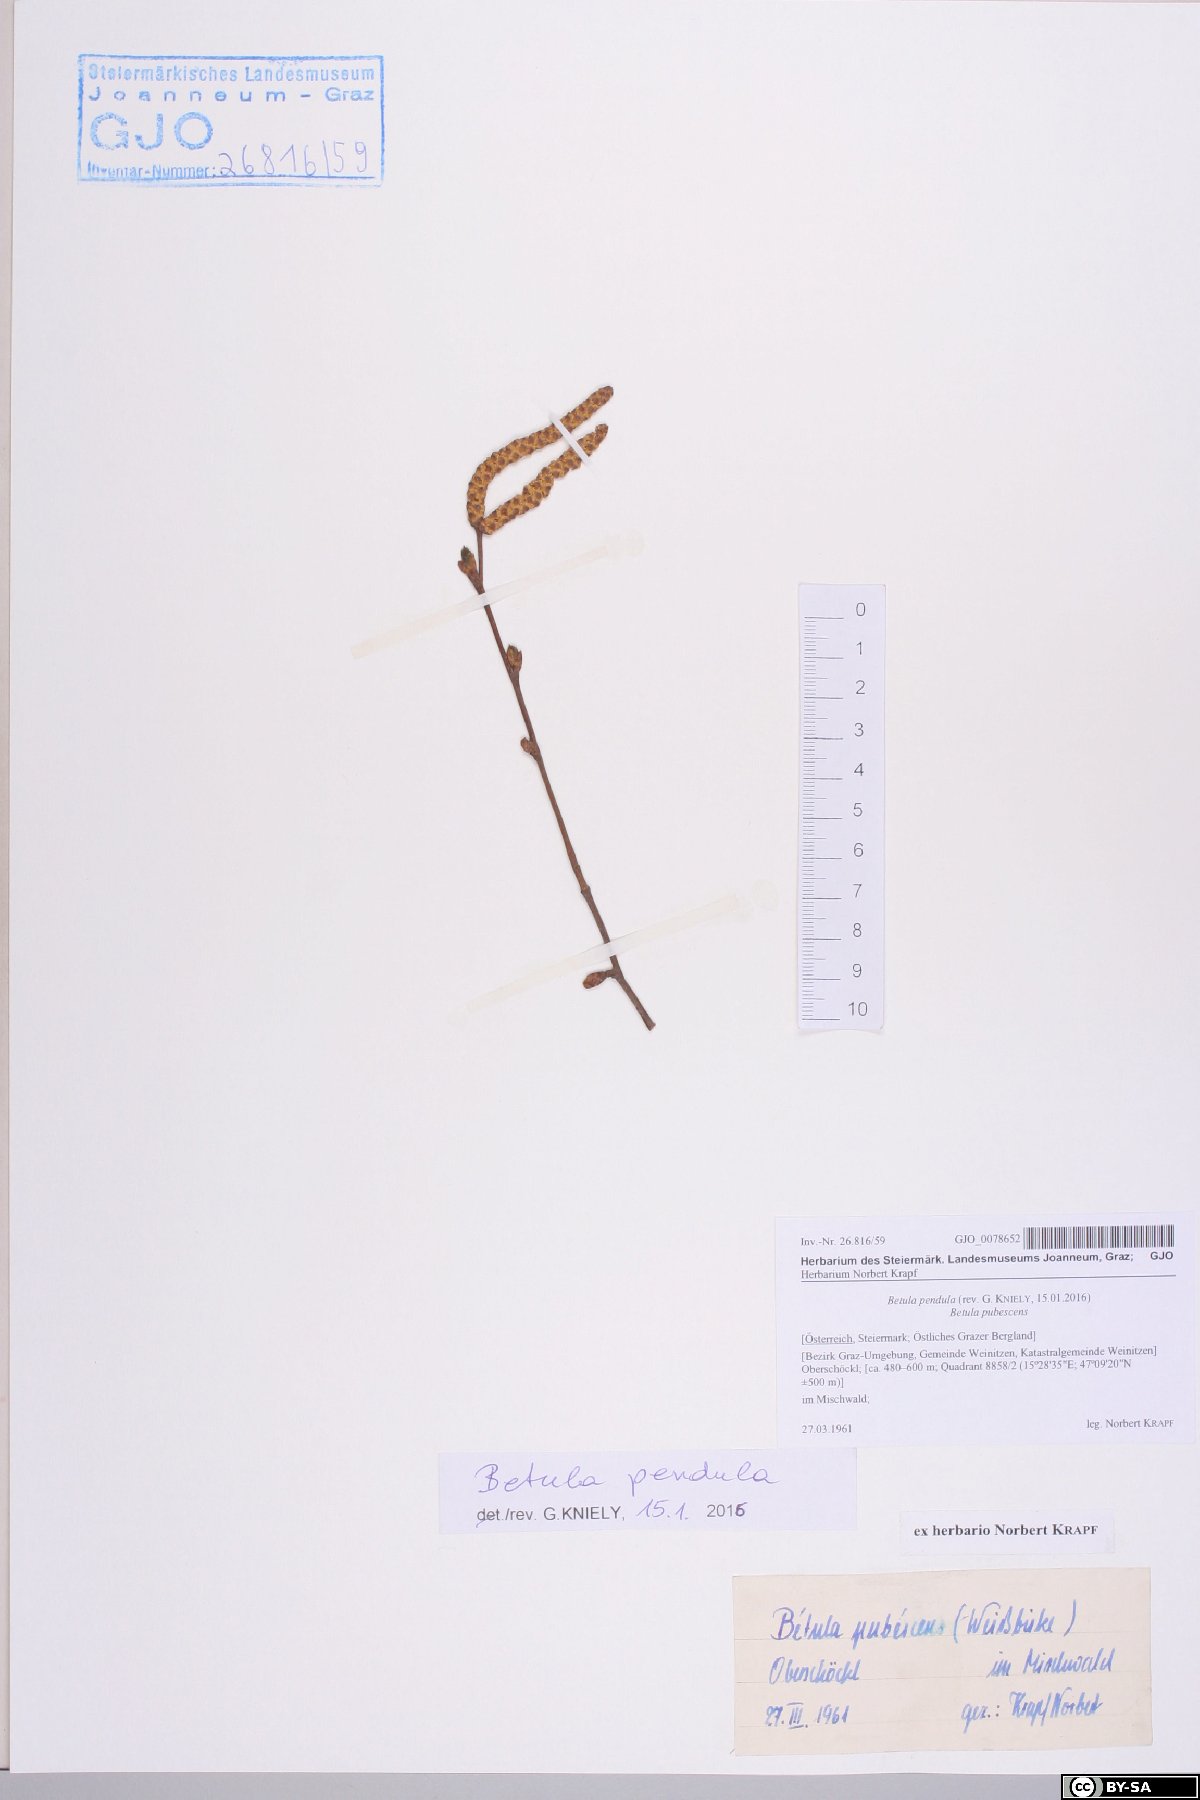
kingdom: Plantae
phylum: Tracheophyta
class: Magnoliopsida
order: Fagales
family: Betulaceae
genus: Betula
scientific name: Betula pendula
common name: Silver birch
